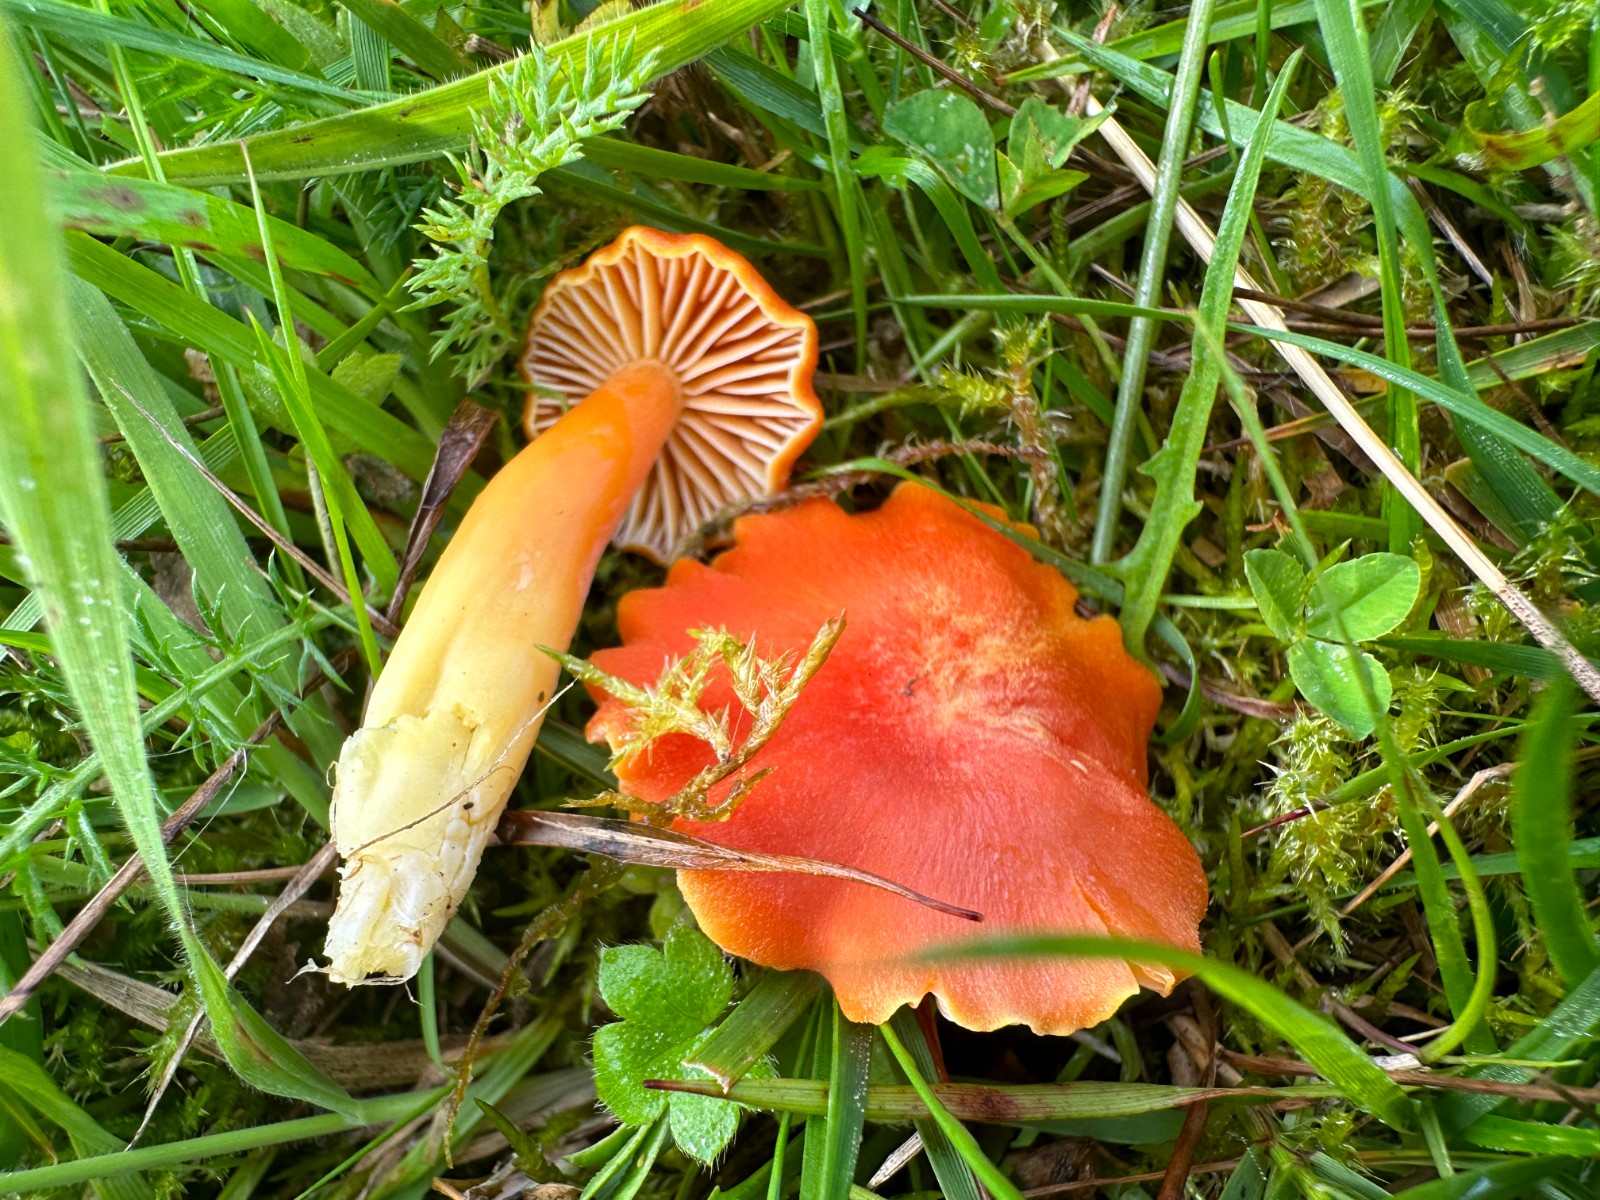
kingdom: Fungi
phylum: Basidiomycota
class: Agaricomycetes
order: Agaricales
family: Hygrophoraceae
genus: Hygrocybe
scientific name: Hygrocybe reidii
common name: honning-vokshat
